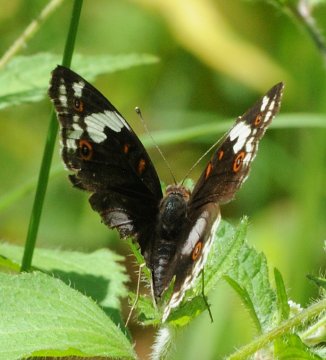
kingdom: Animalia
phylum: Arthropoda
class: Insecta
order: Lepidoptera
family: Nymphalidae
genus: Junonia
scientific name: Junonia oenone
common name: Dark blue pansy
